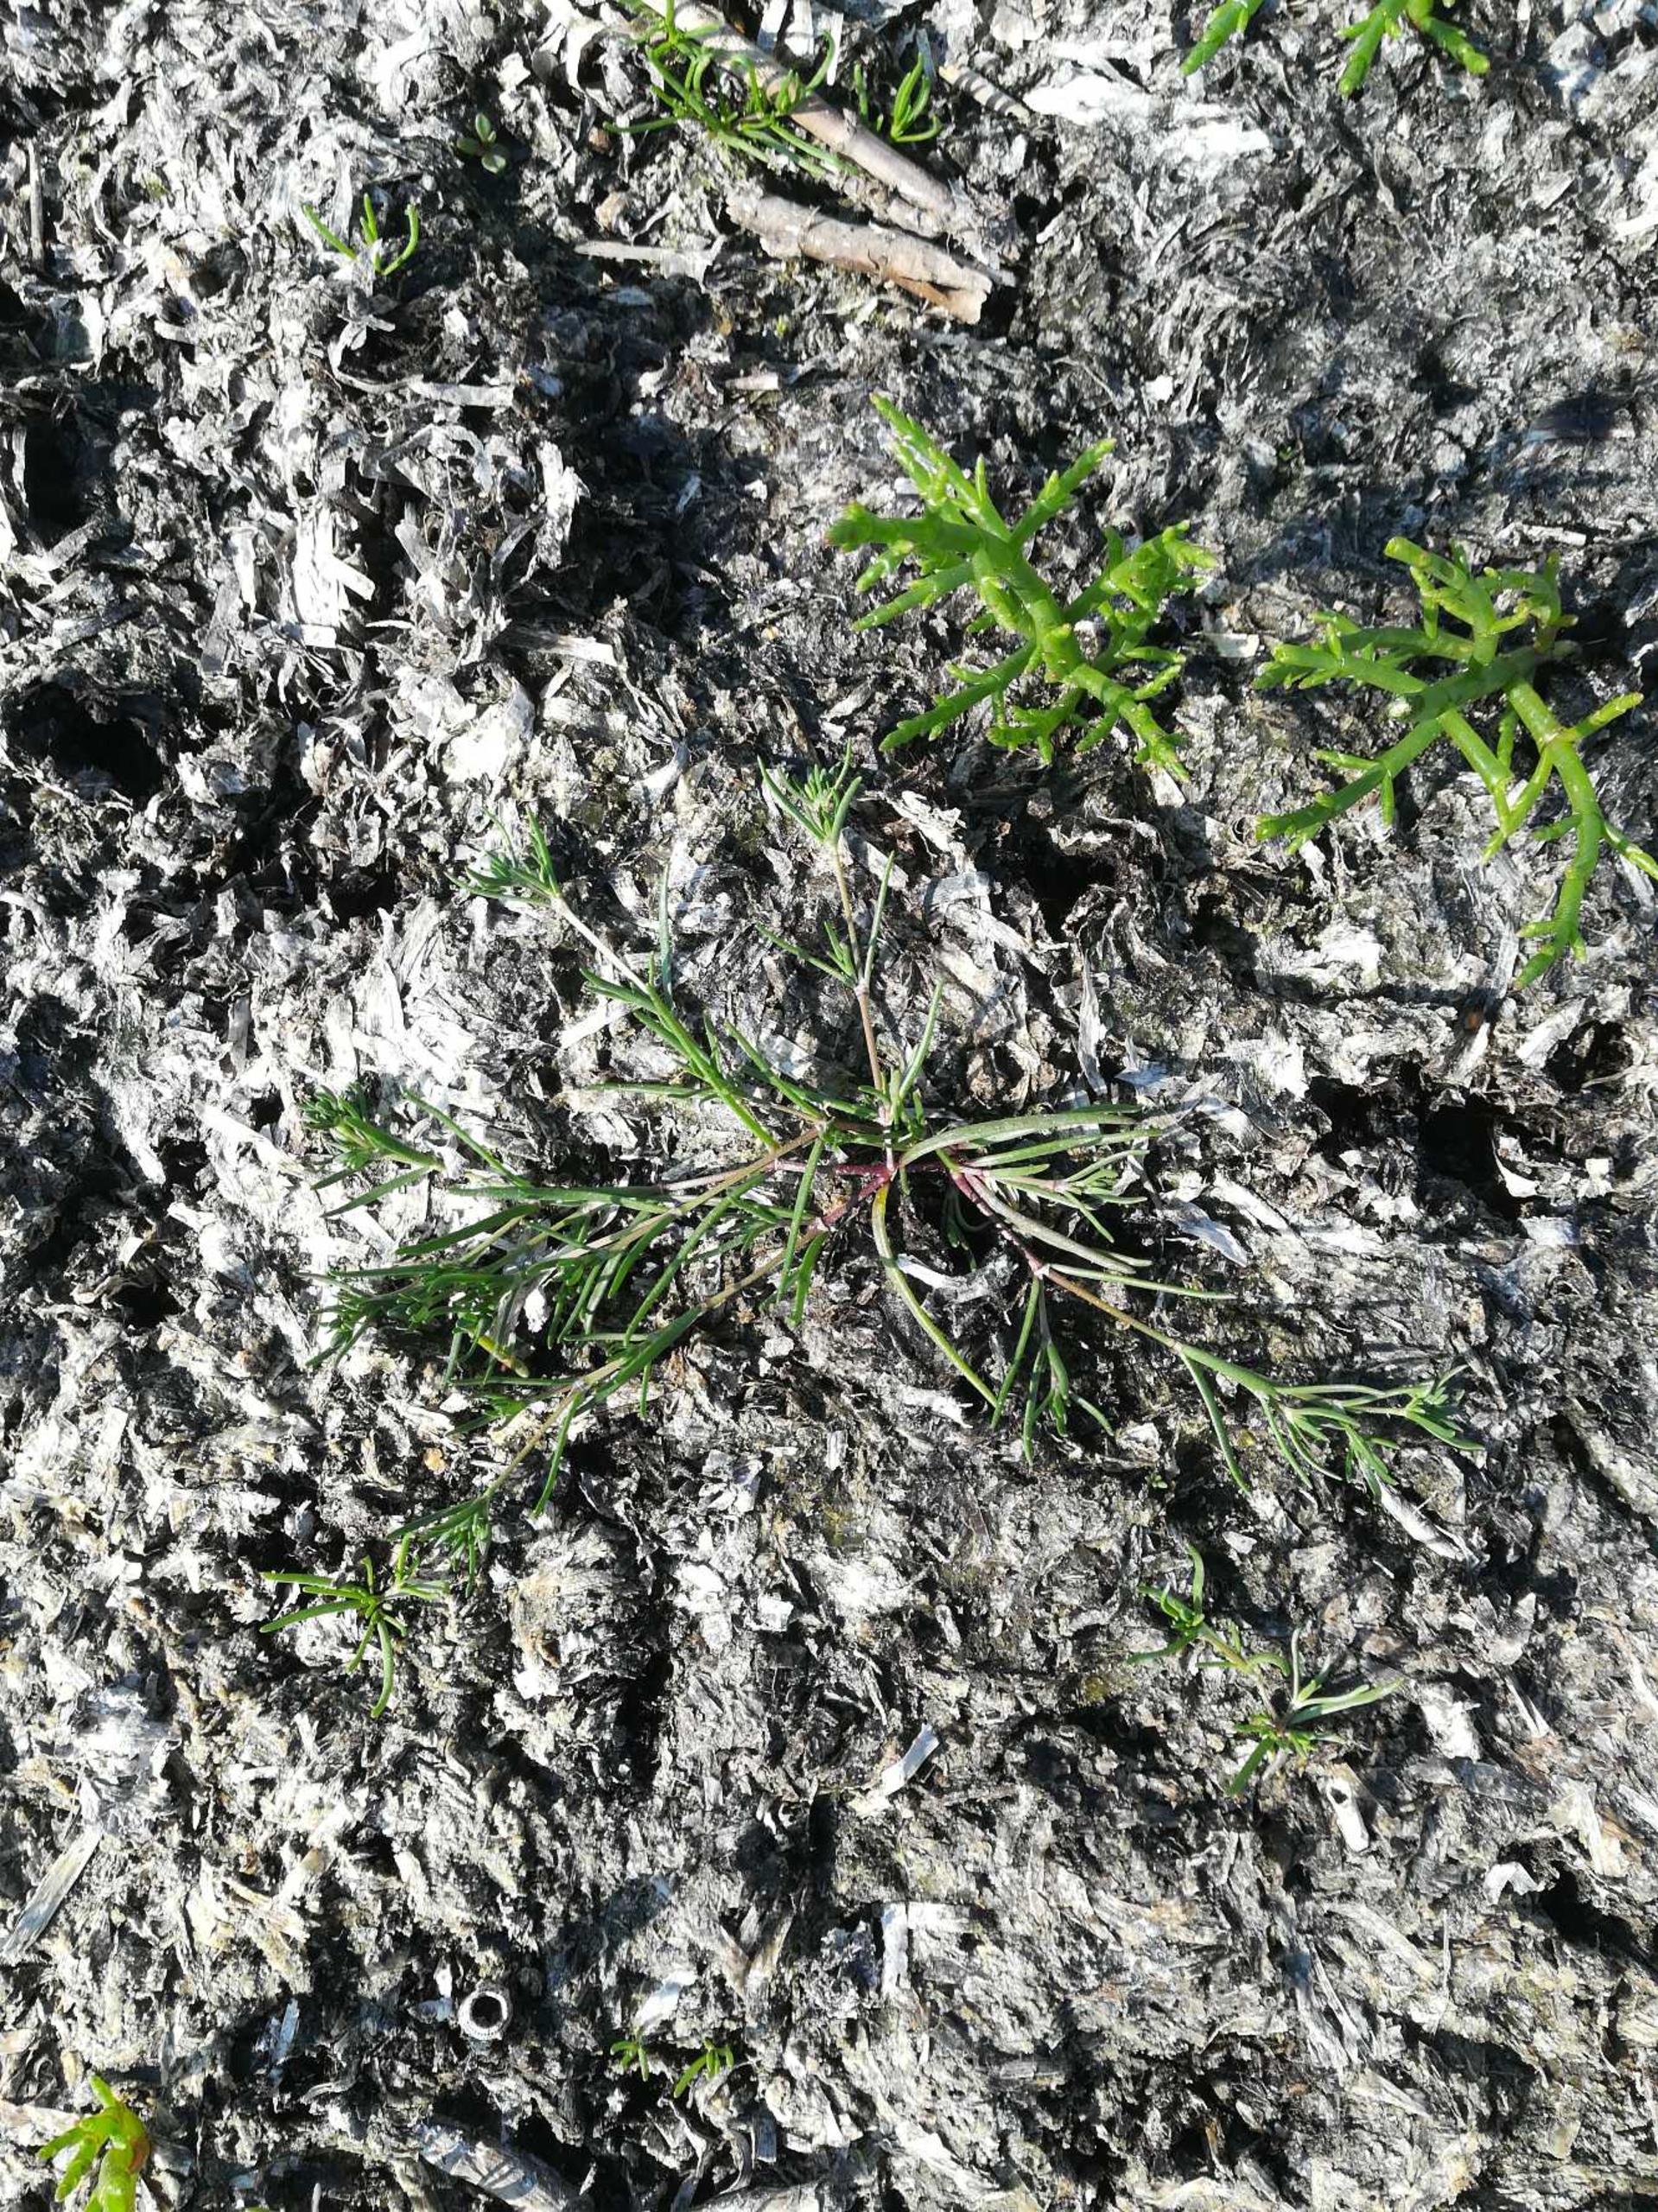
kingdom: Plantae
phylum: Tracheophyta
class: Magnoliopsida
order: Caryophyllales
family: Caryophyllaceae
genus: Spergularia
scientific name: Spergularia marina
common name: Kødet hindeknæ
